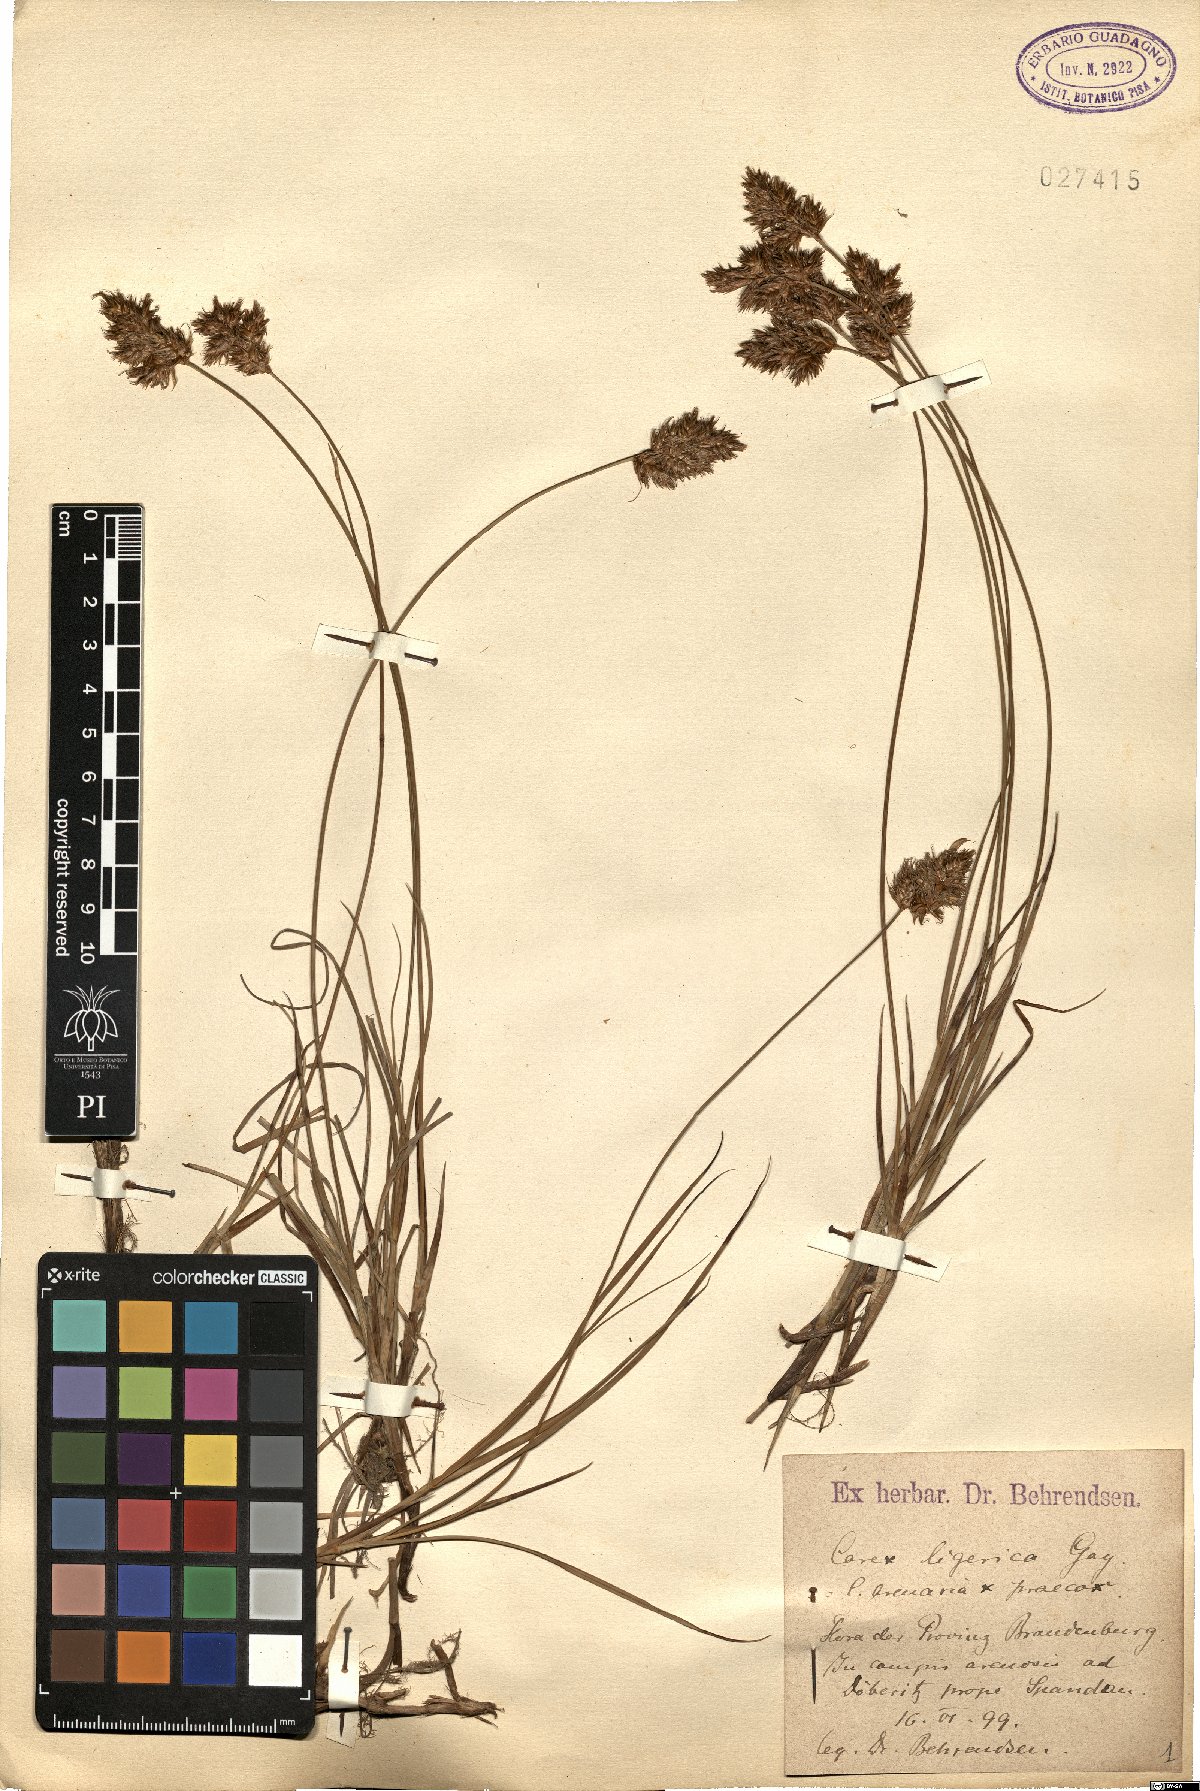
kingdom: Plantae
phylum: Tracheophyta
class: Liliopsida
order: Poales
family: Cyperaceae
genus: Carex
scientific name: Carex colchica
